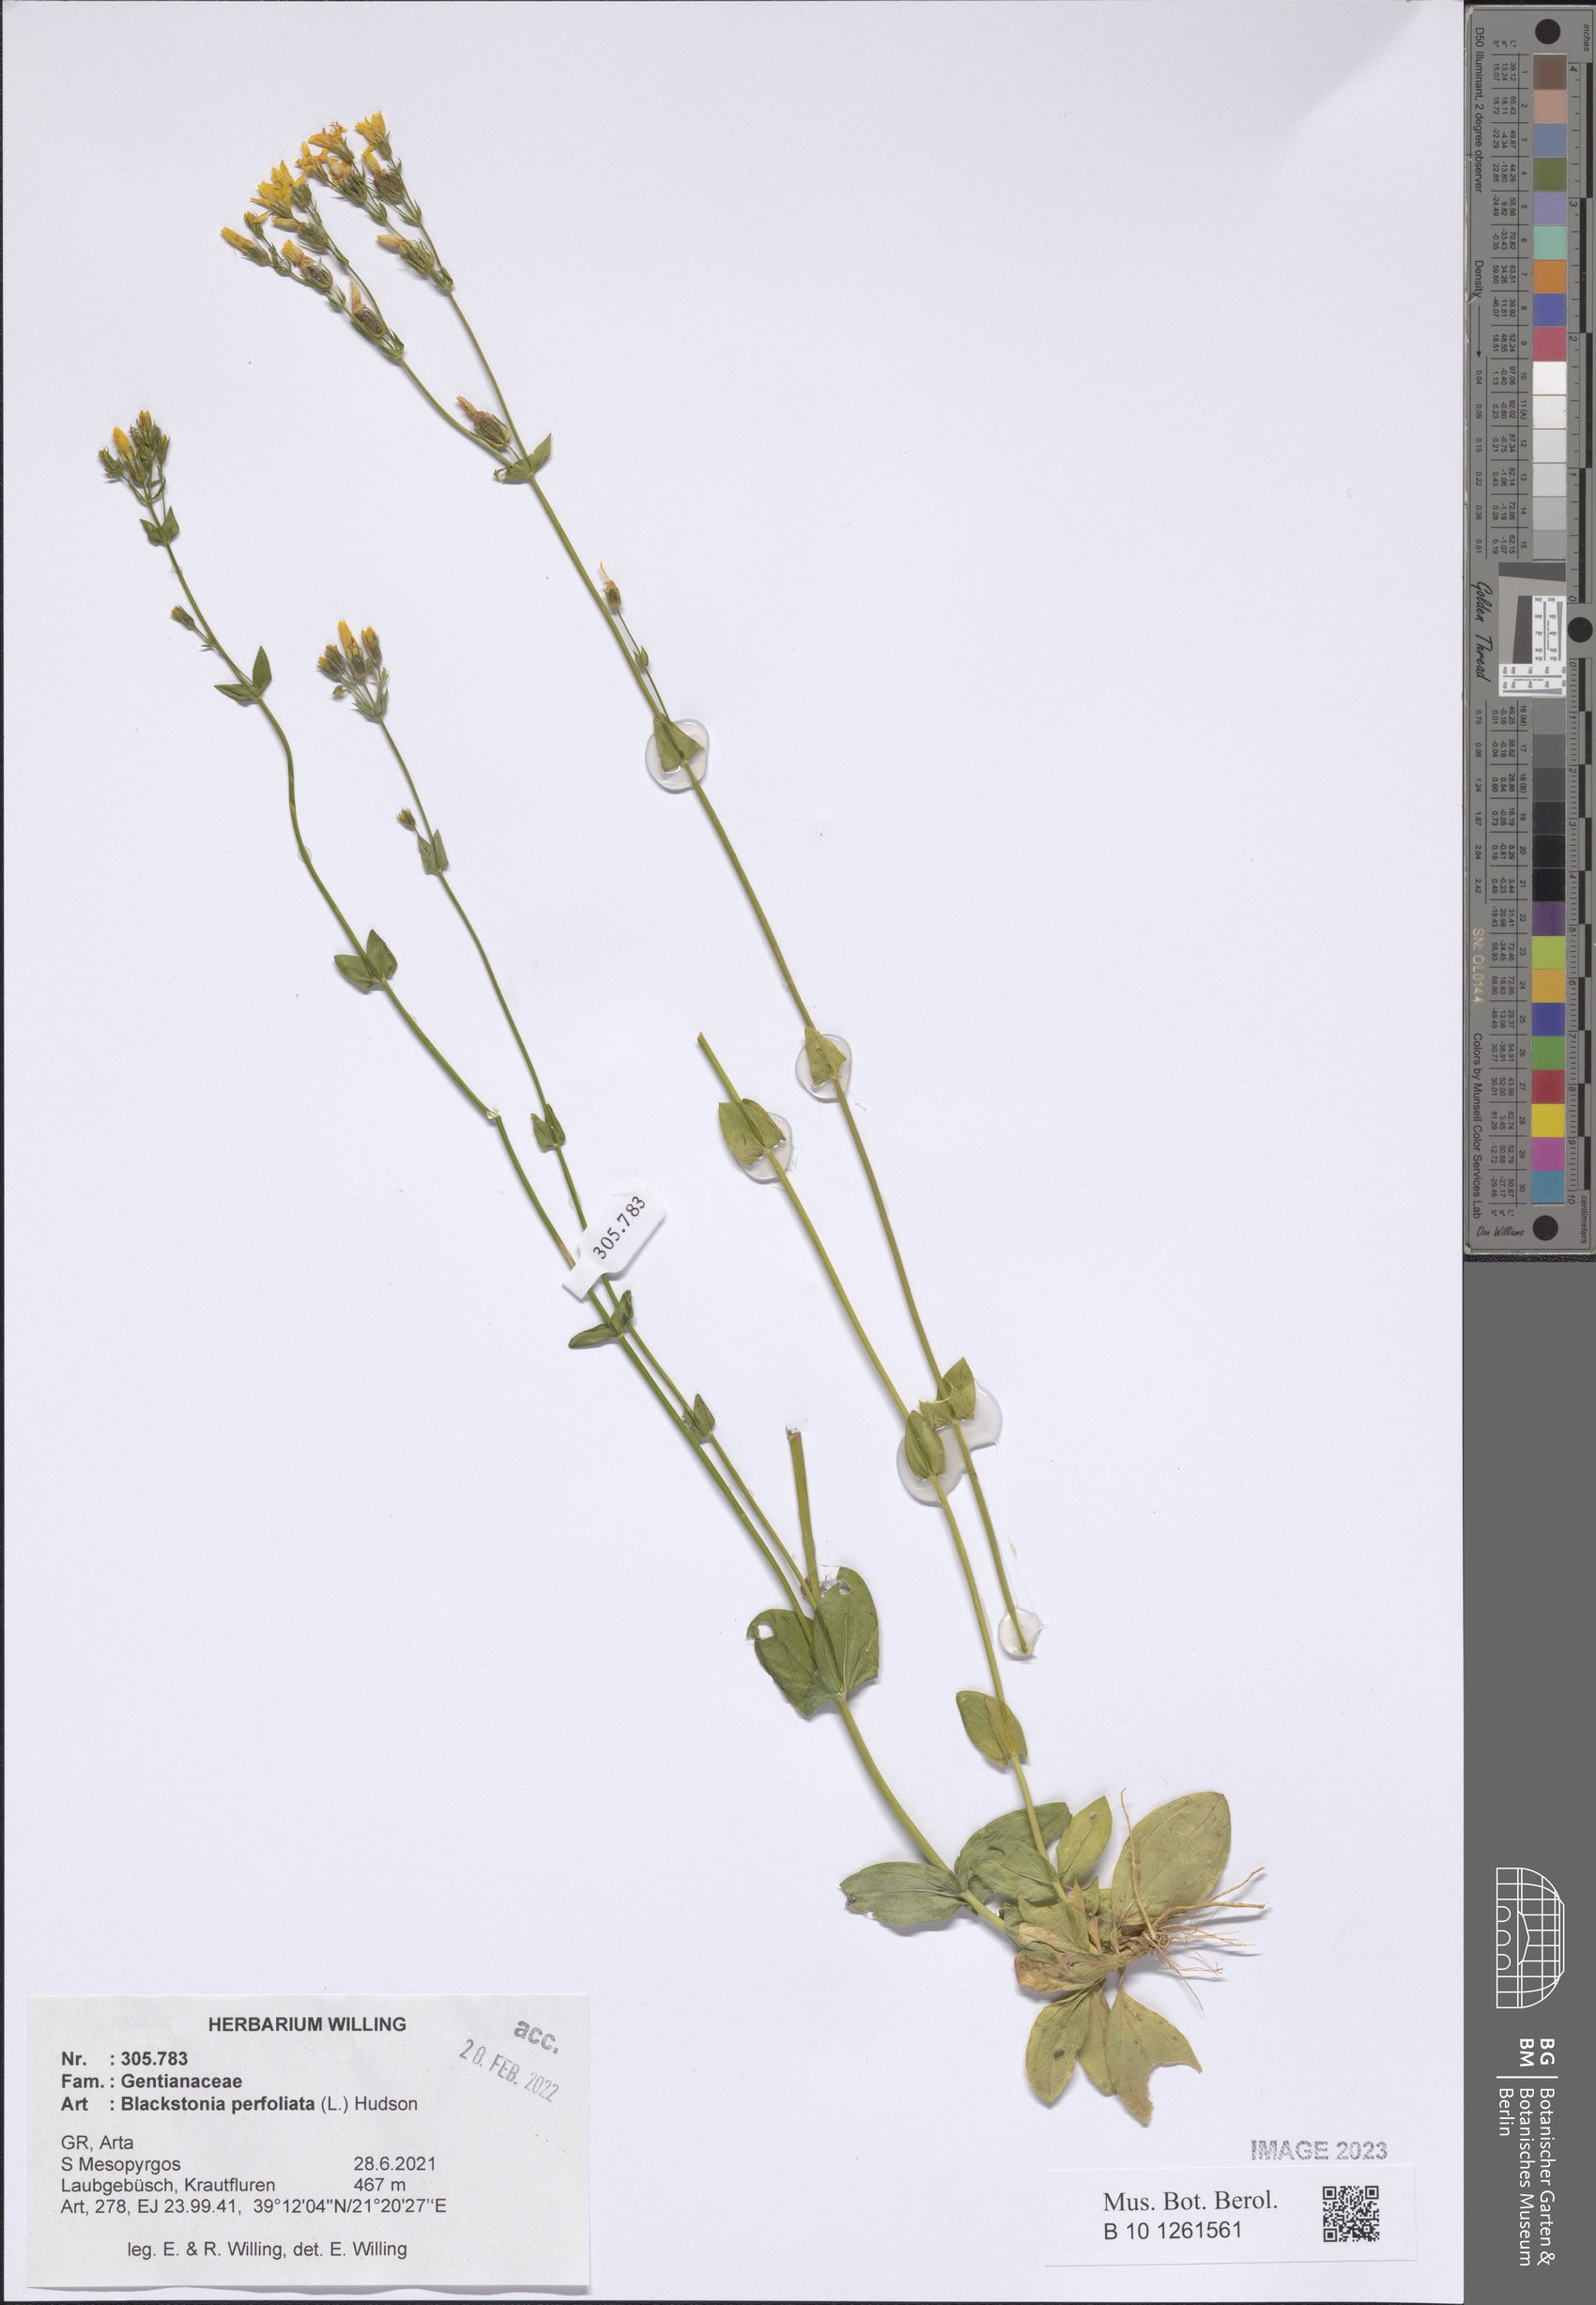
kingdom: Plantae
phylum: Tracheophyta
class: Magnoliopsida
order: Gentianales
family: Gentianaceae
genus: Blackstonia
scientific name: Blackstonia perfoliata
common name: Yellow-wort
